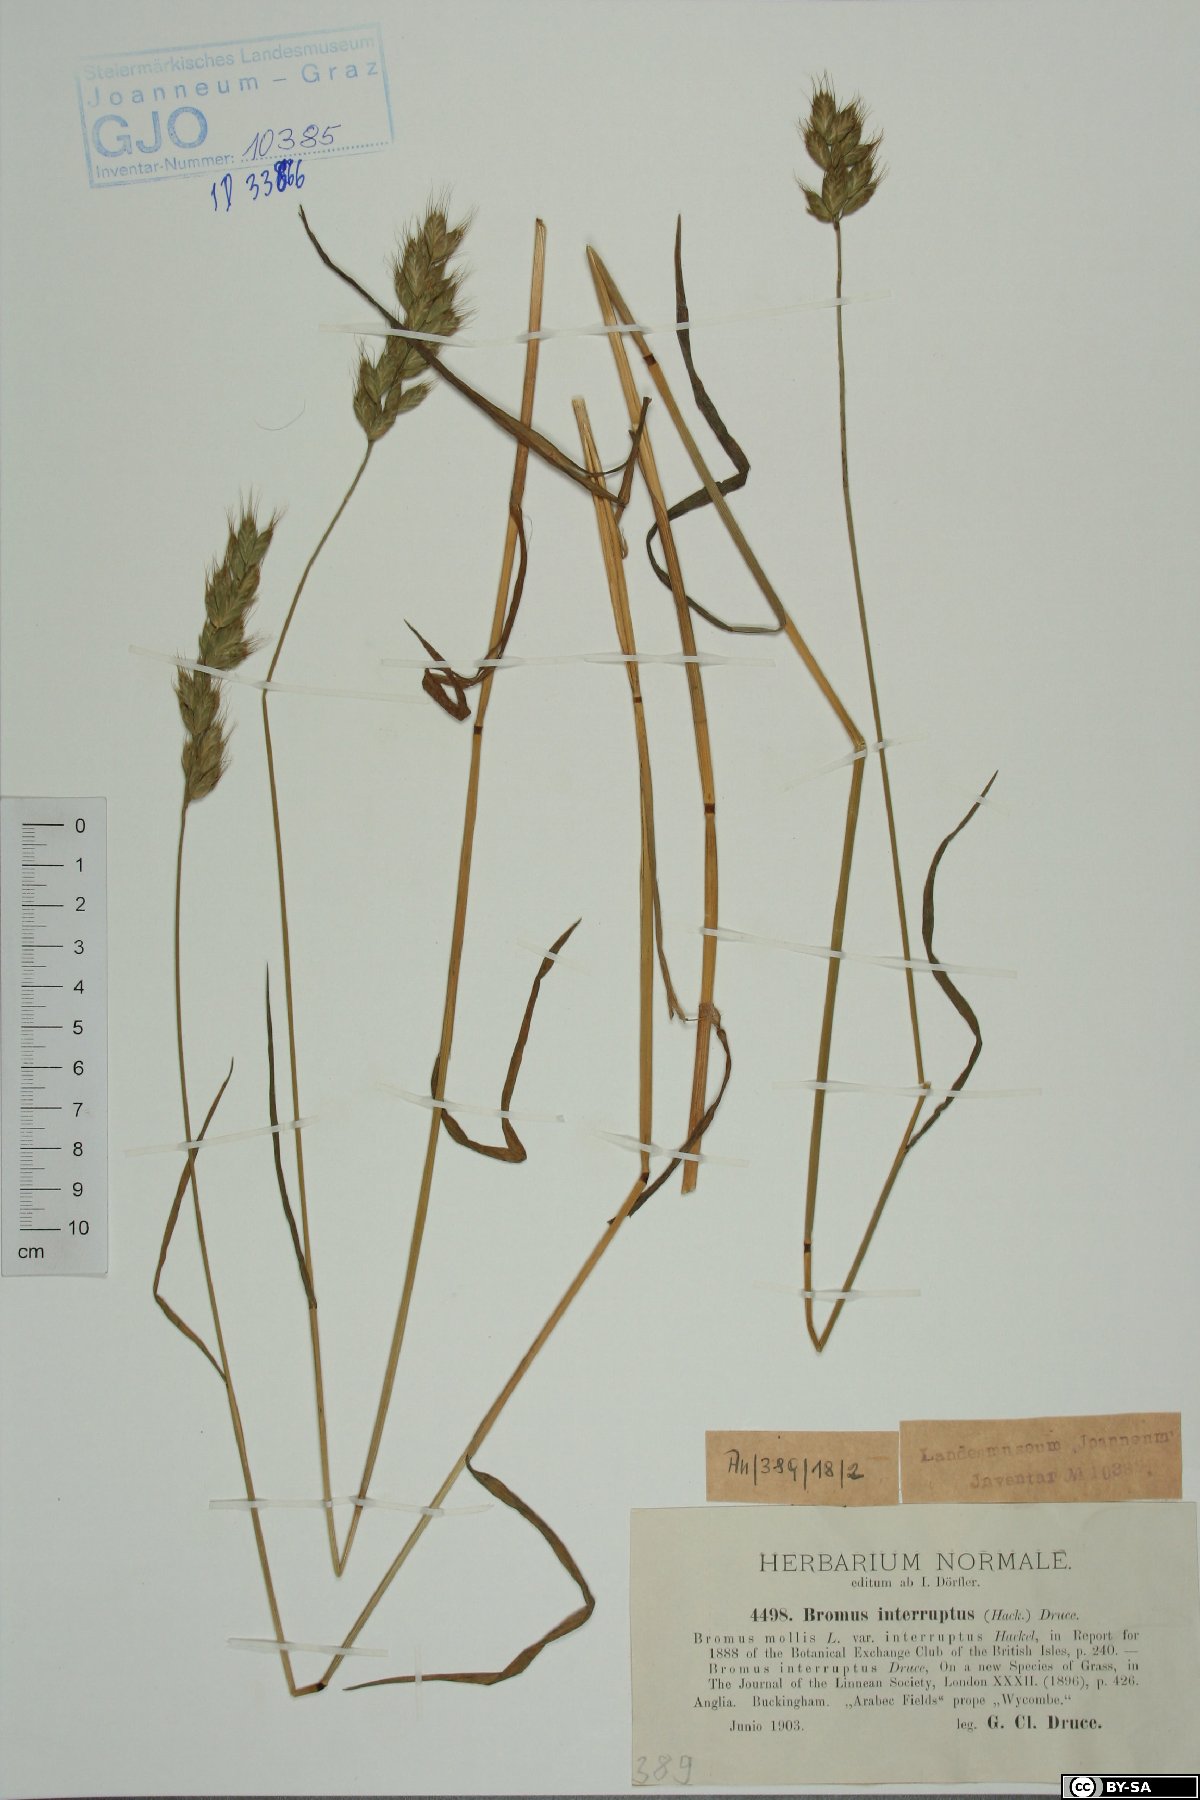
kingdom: Plantae
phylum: Tracheophyta
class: Liliopsida
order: Poales
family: Poaceae
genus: Bromus
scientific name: Bromus interruptus
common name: Interrupted brome
